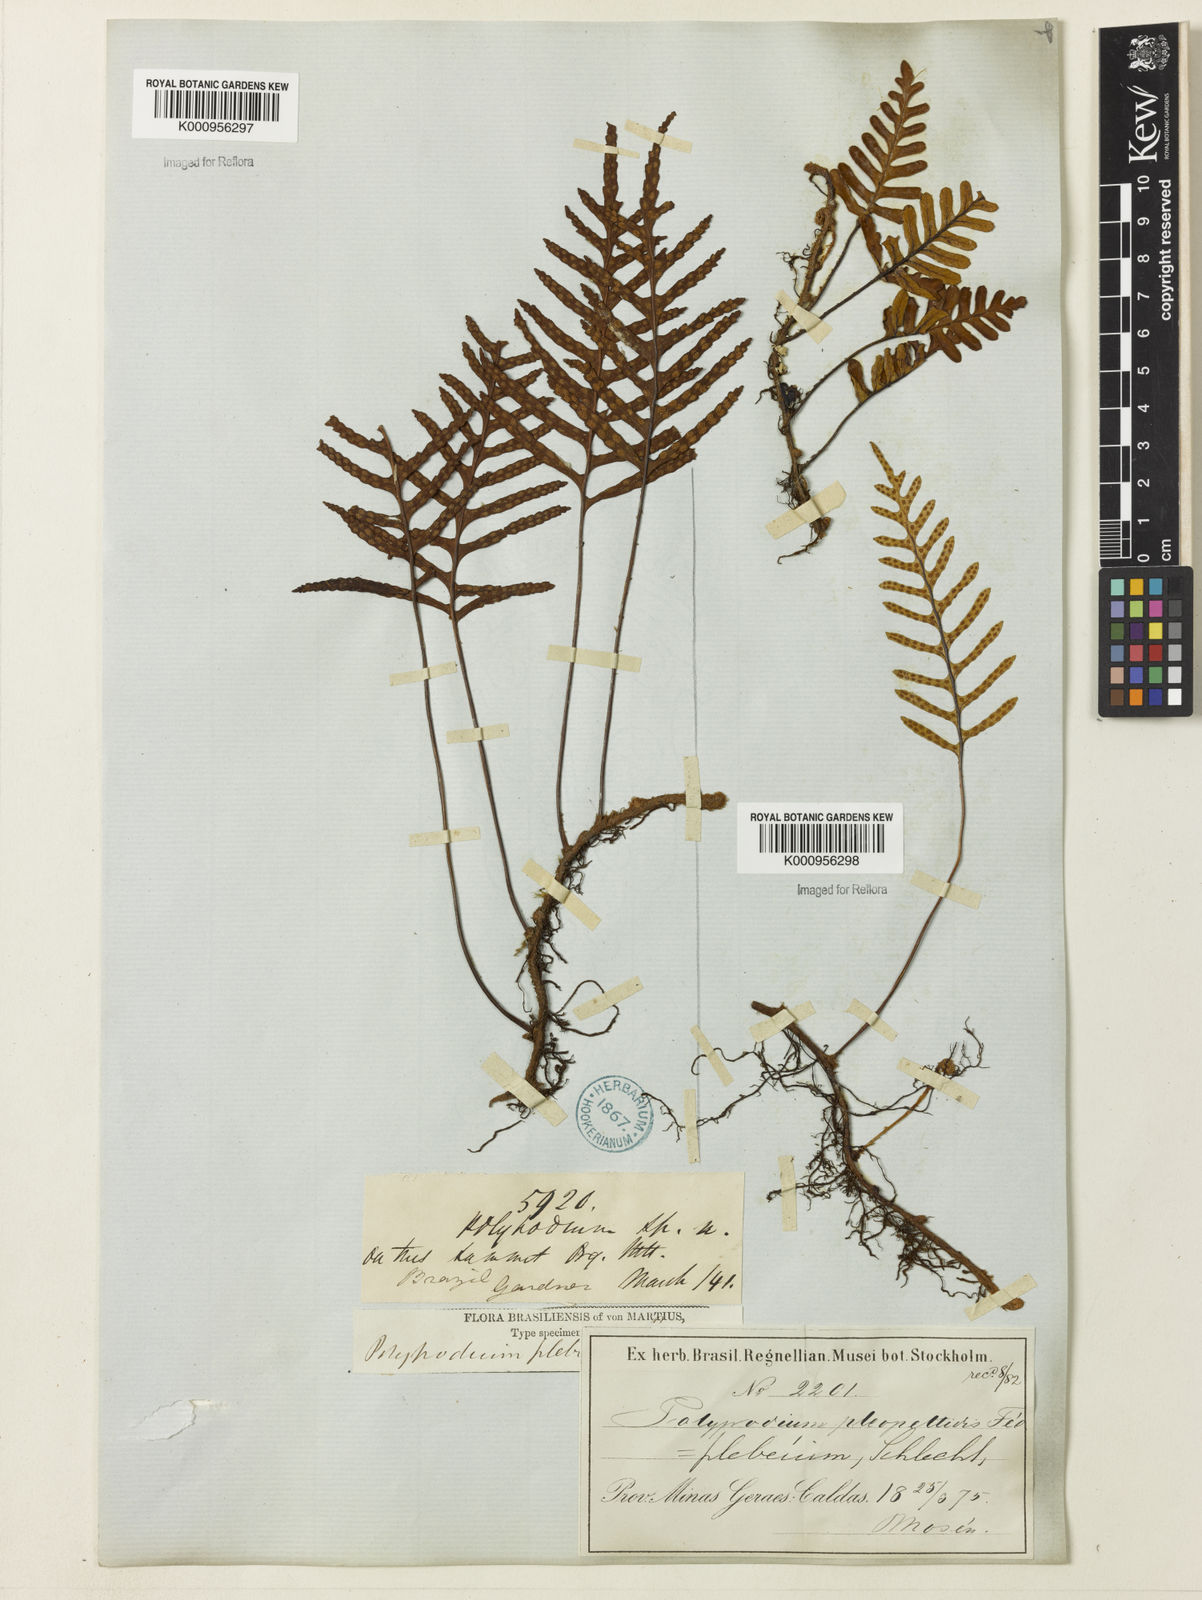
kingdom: Plantae
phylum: Tracheophyta
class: Polypodiopsida
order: Polypodiales
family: Polypodiaceae
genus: Polypodium
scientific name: Polypodium
